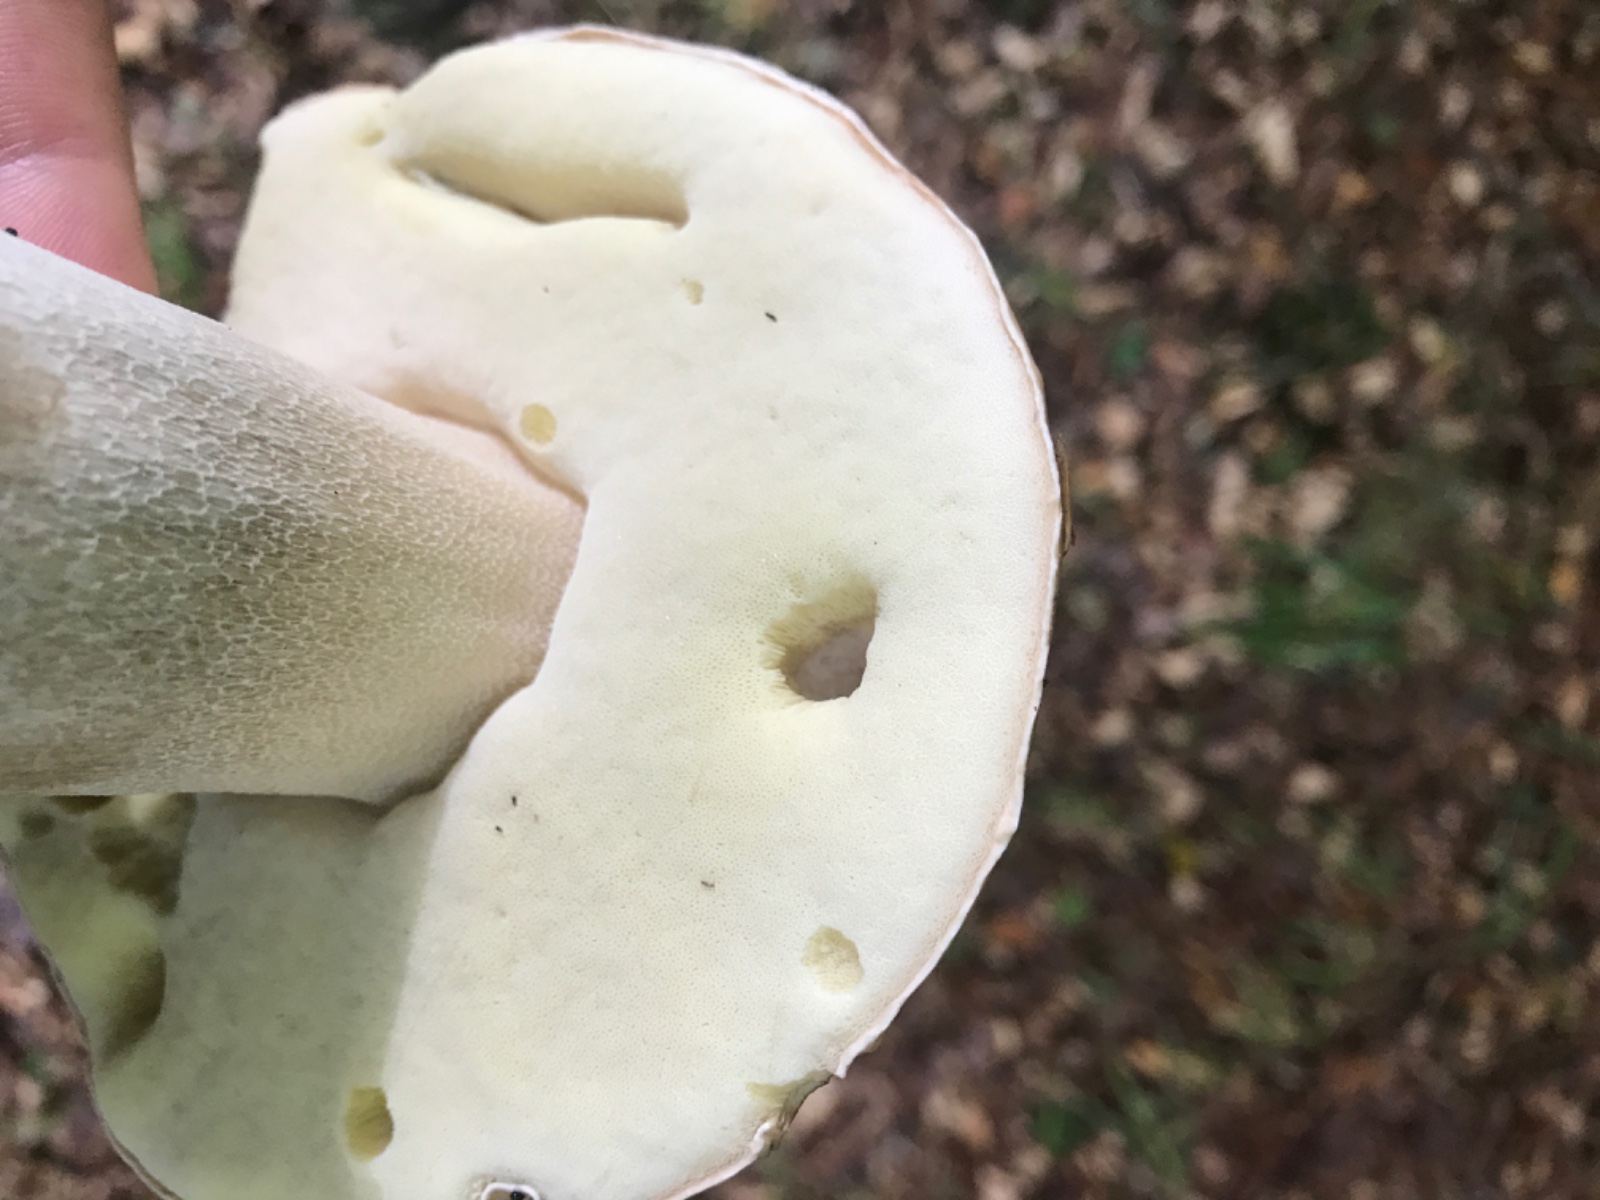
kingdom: Fungi
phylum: Basidiomycota
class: Agaricomycetes
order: Boletales
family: Boletaceae
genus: Boletus
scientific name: Boletus edulis
